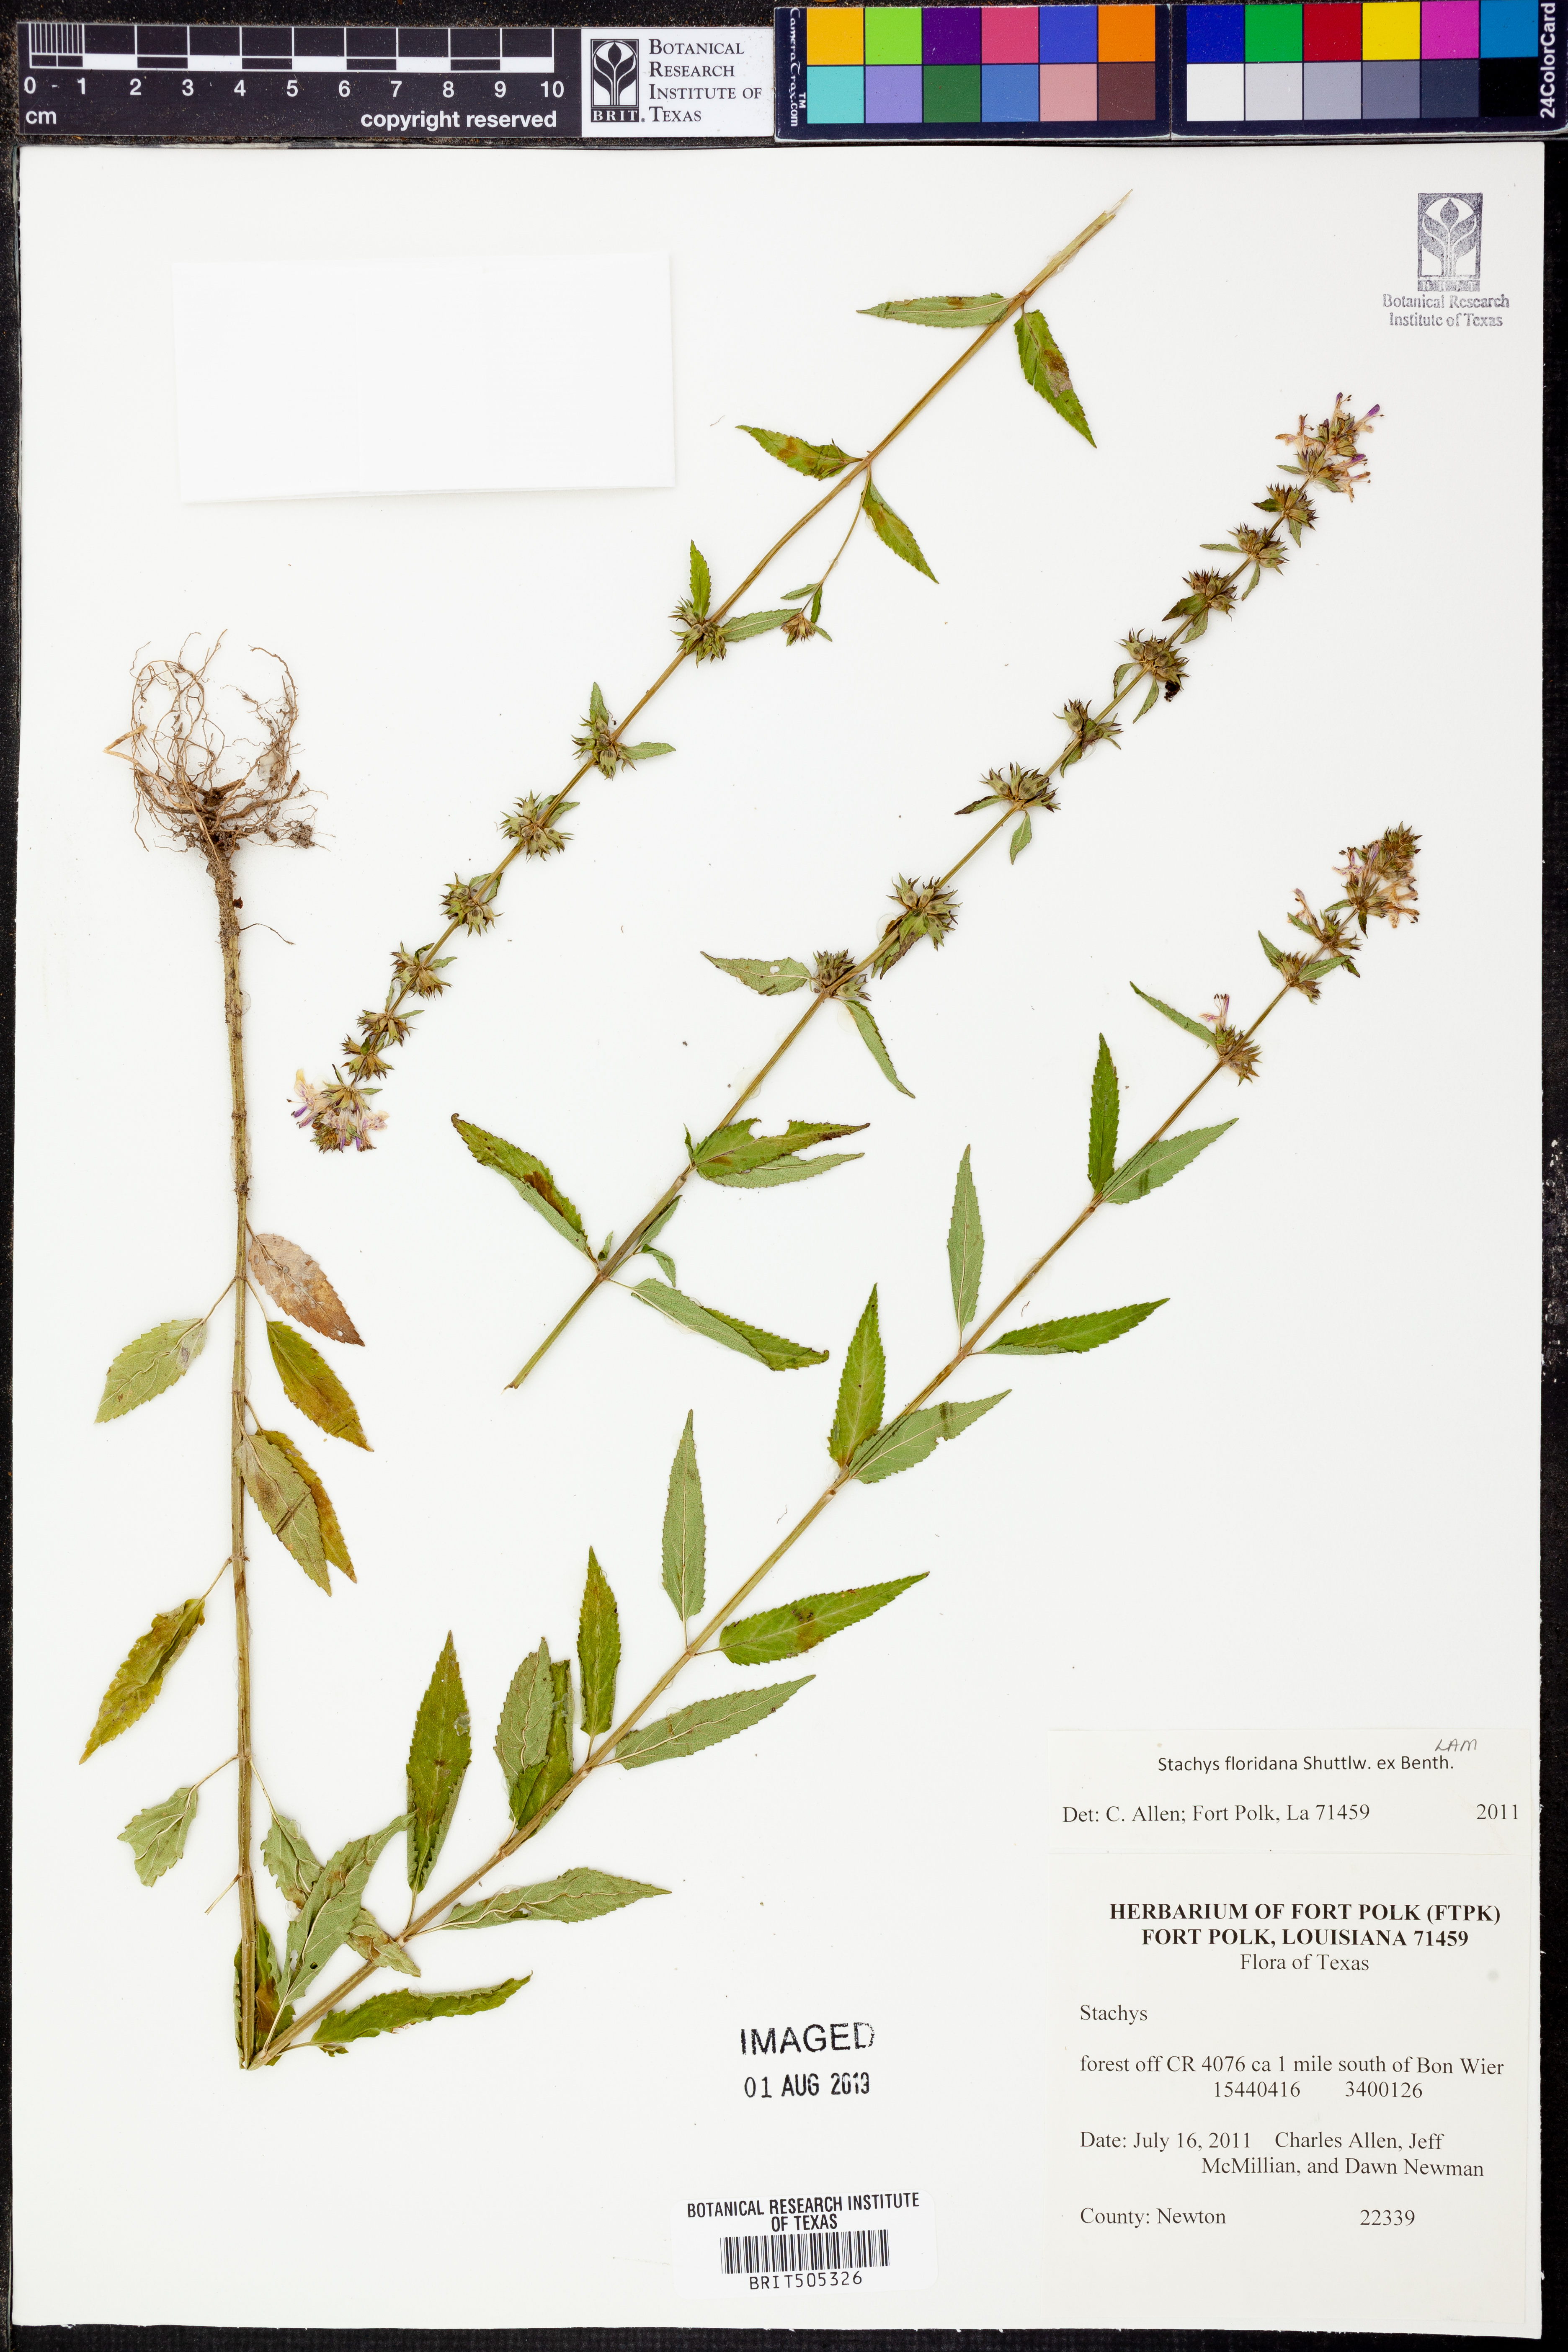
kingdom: Plantae
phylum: Tracheophyta
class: Magnoliopsida
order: Lamiales
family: Lamiaceae
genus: Stachys
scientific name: Stachys floridana
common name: Florida betony
